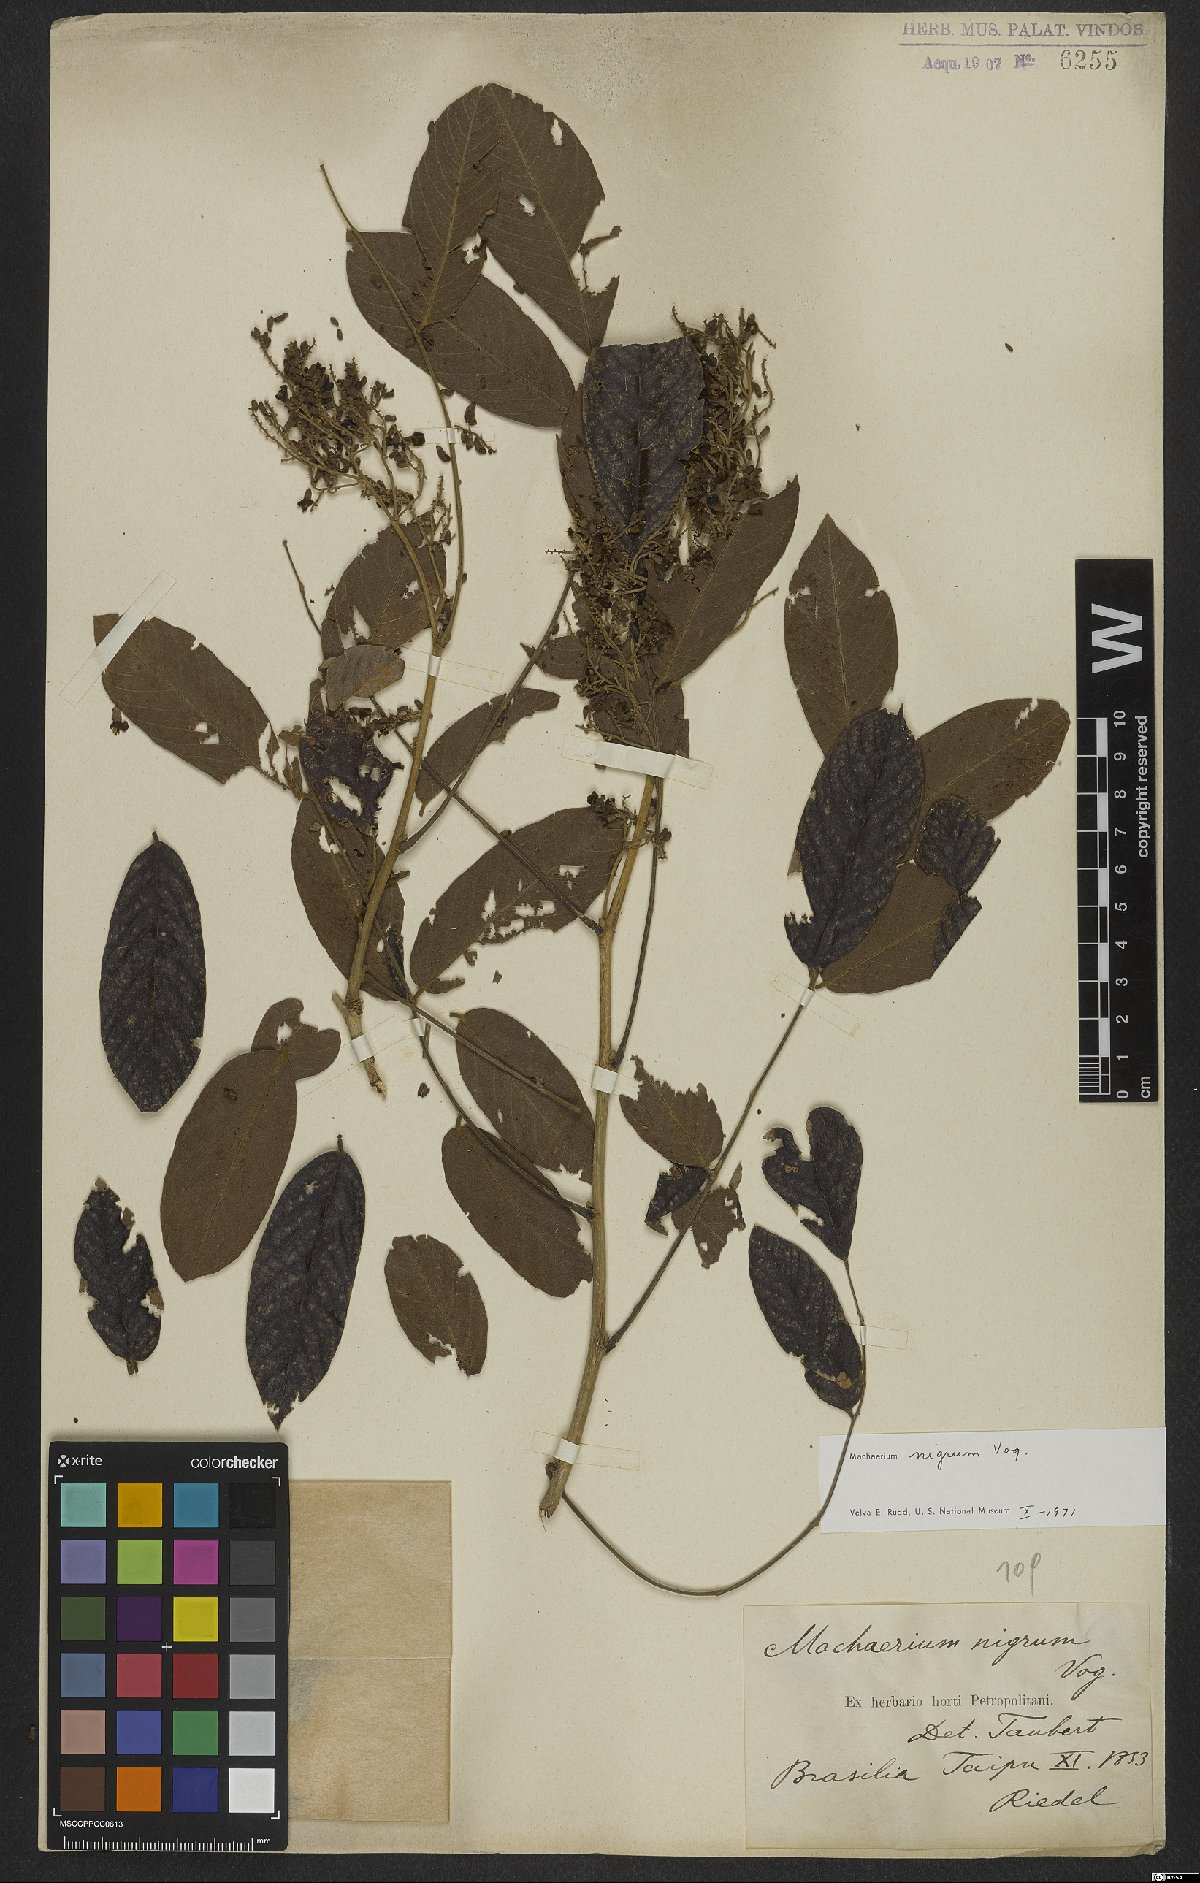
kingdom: Plantae
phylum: Tracheophyta
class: Magnoliopsida
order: Fabales
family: Fabaceae
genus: Machaerium
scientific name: Machaerium nigrum
